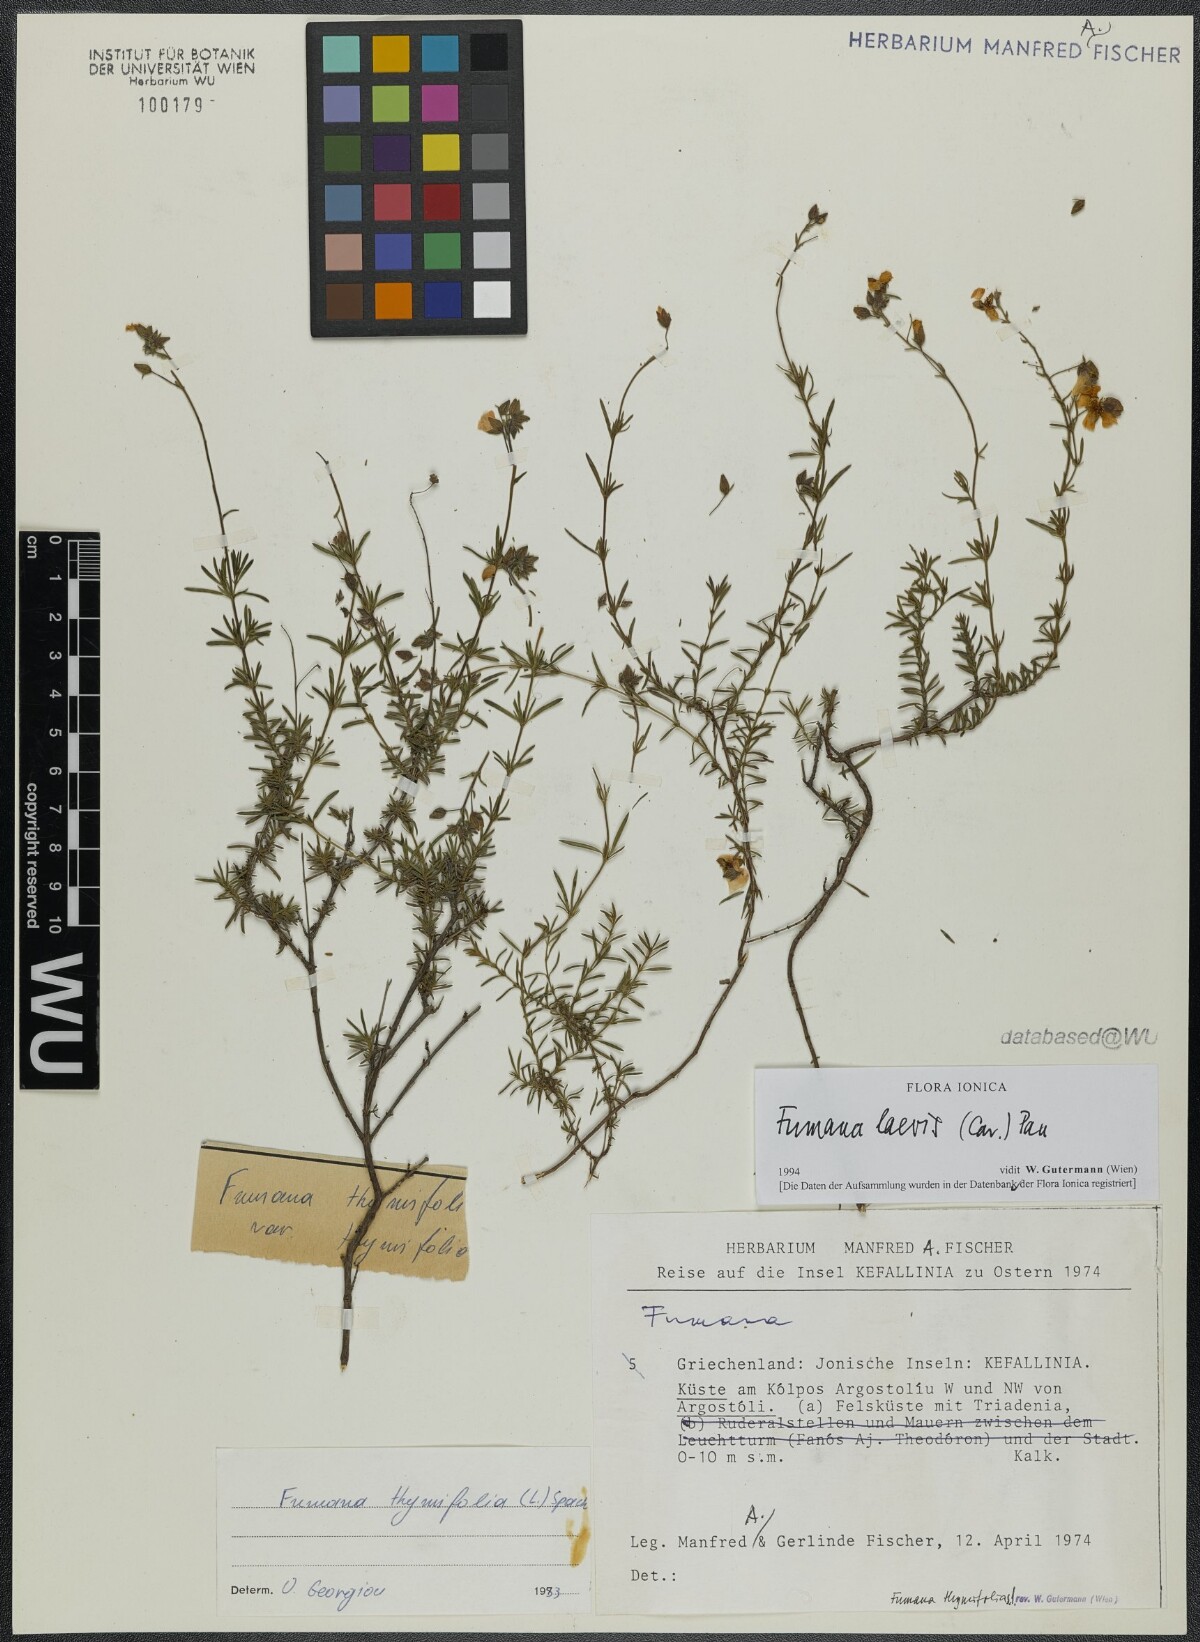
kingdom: Plantae
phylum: Tracheophyta
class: Magnoliopsida
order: Malvales
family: Cistaceae
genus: Fumana
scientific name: Fumana laevis
